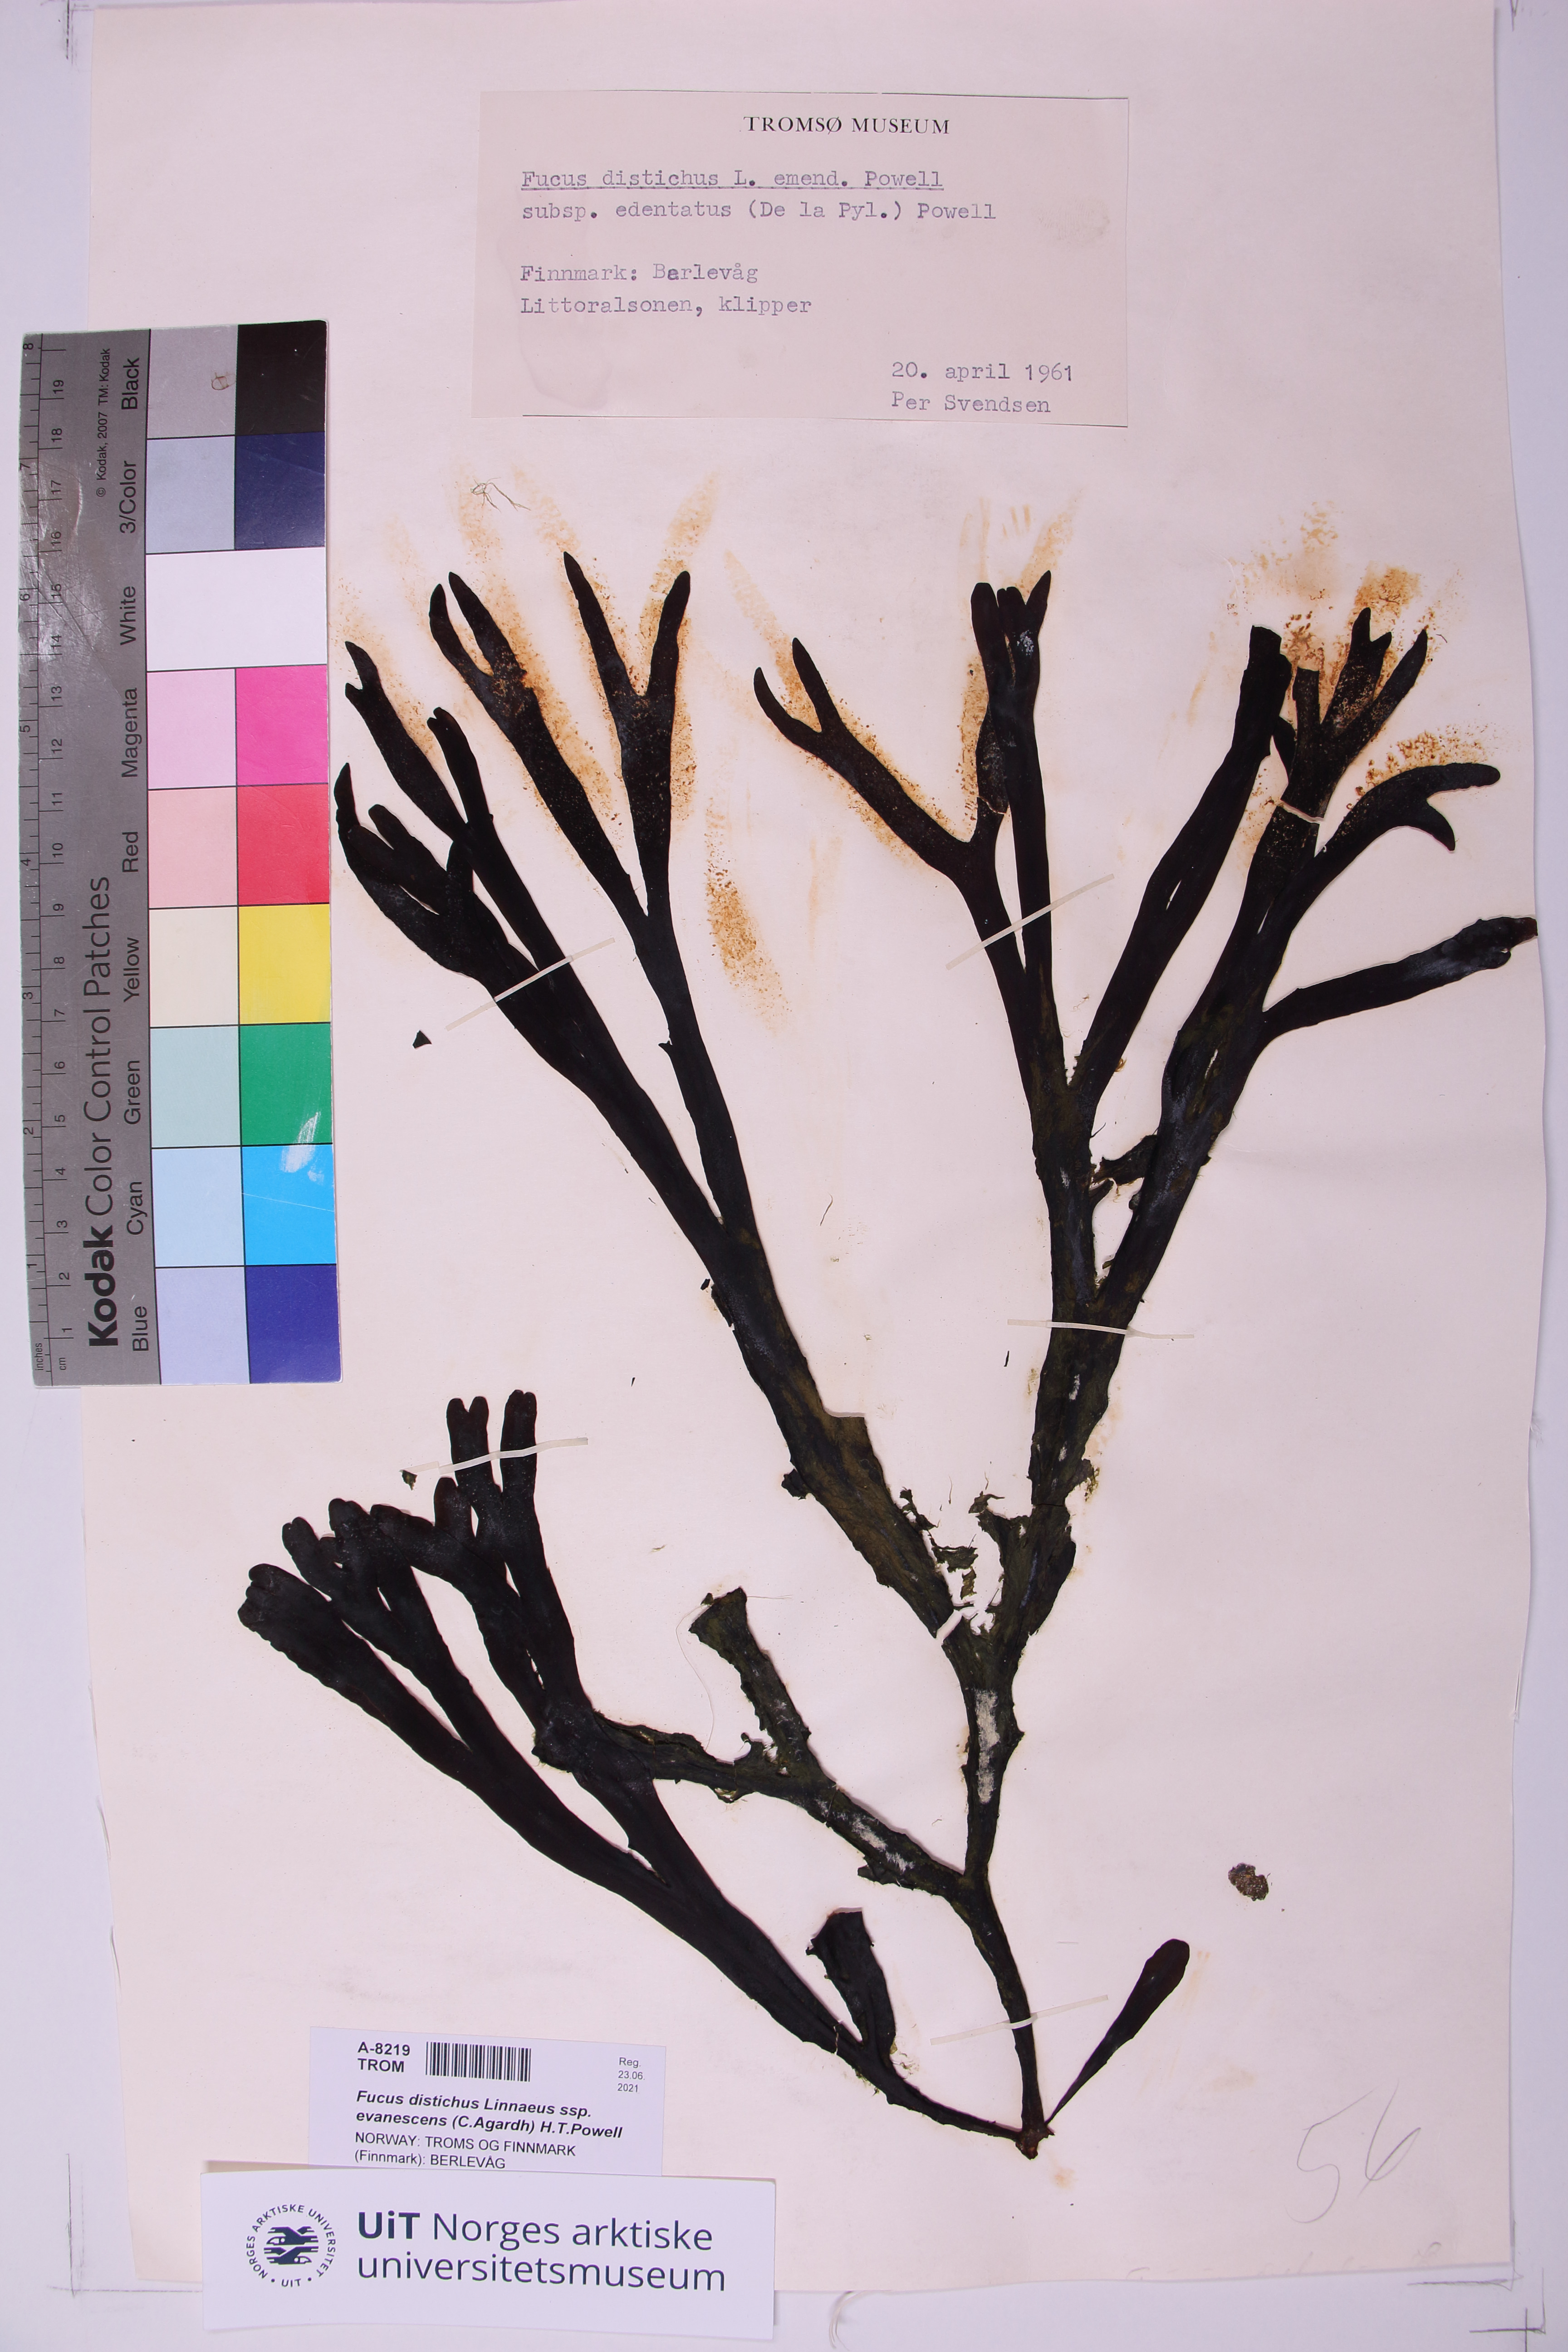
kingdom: Chromista
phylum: Ochrophyta
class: Phaeophyceae
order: Fucales
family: Fucaceae
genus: Fucus
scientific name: Fucus evanescens
